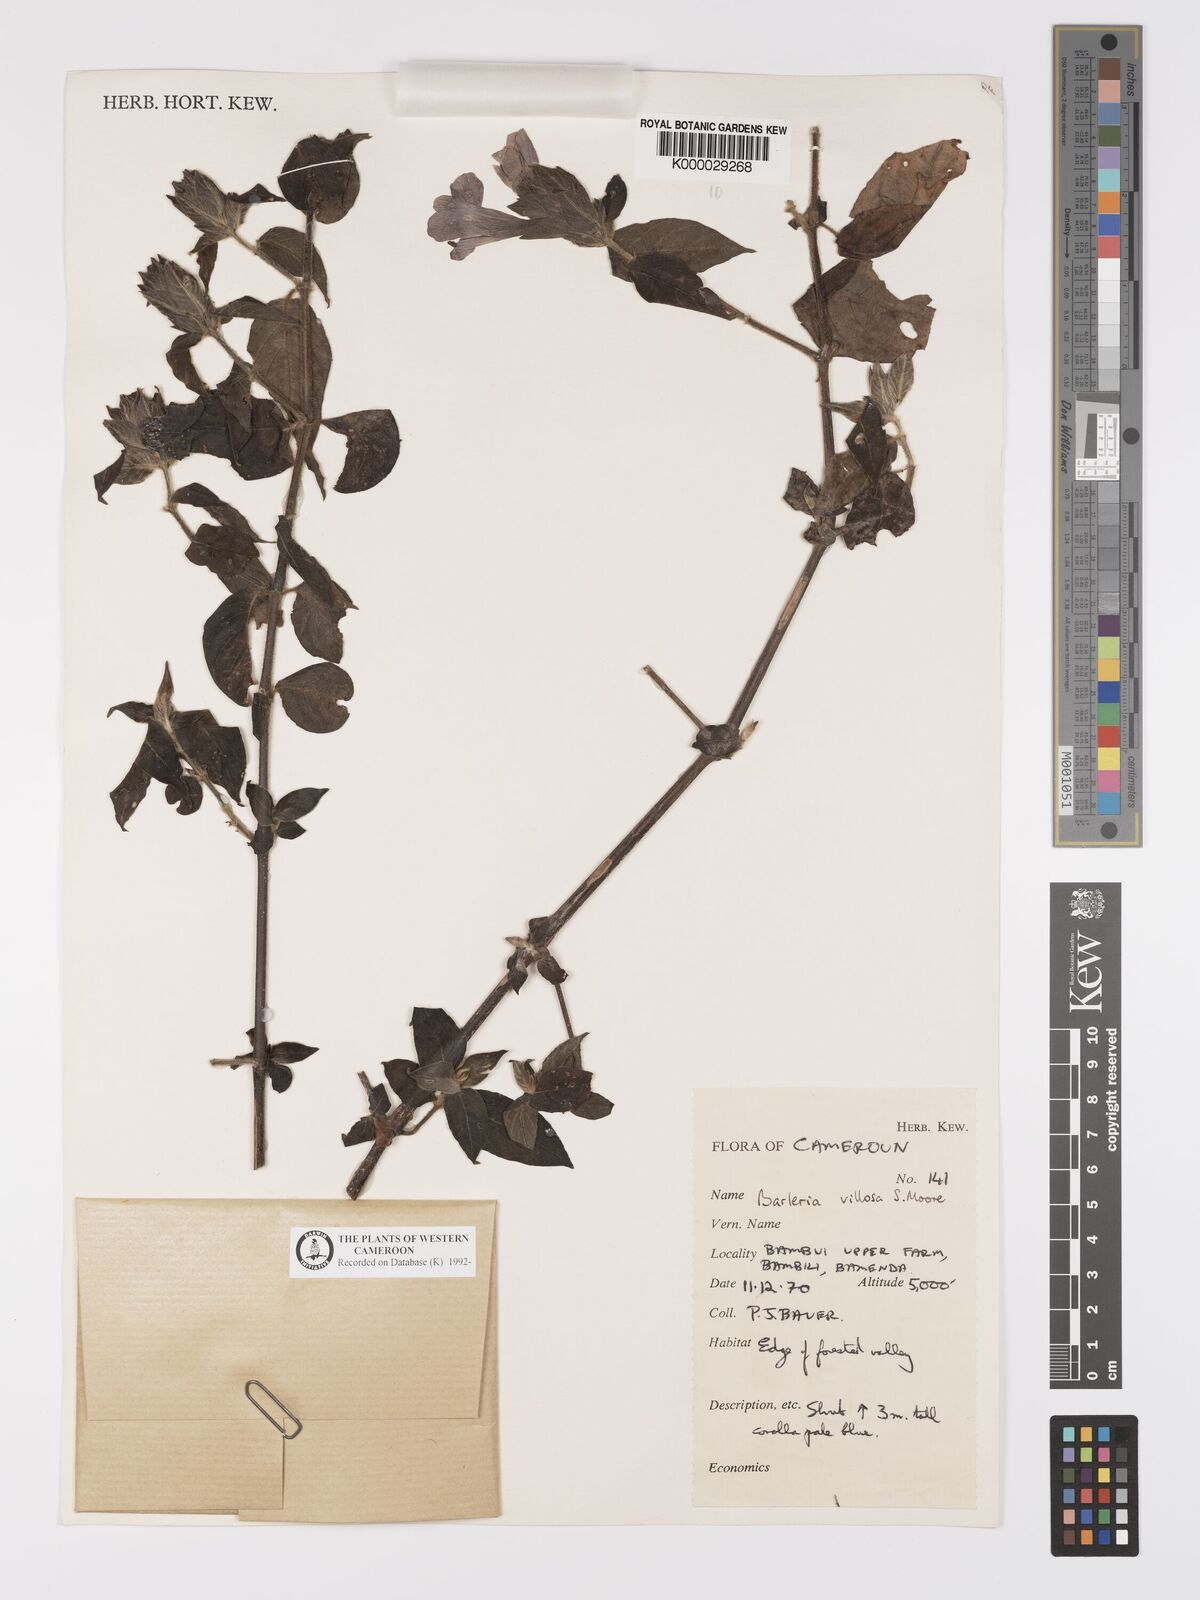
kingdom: Plantae
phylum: Tracheophyta
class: Magnoliopsida
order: Lamiales
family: Acanthaceae
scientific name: Acanthaceae
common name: Acanthaceae
